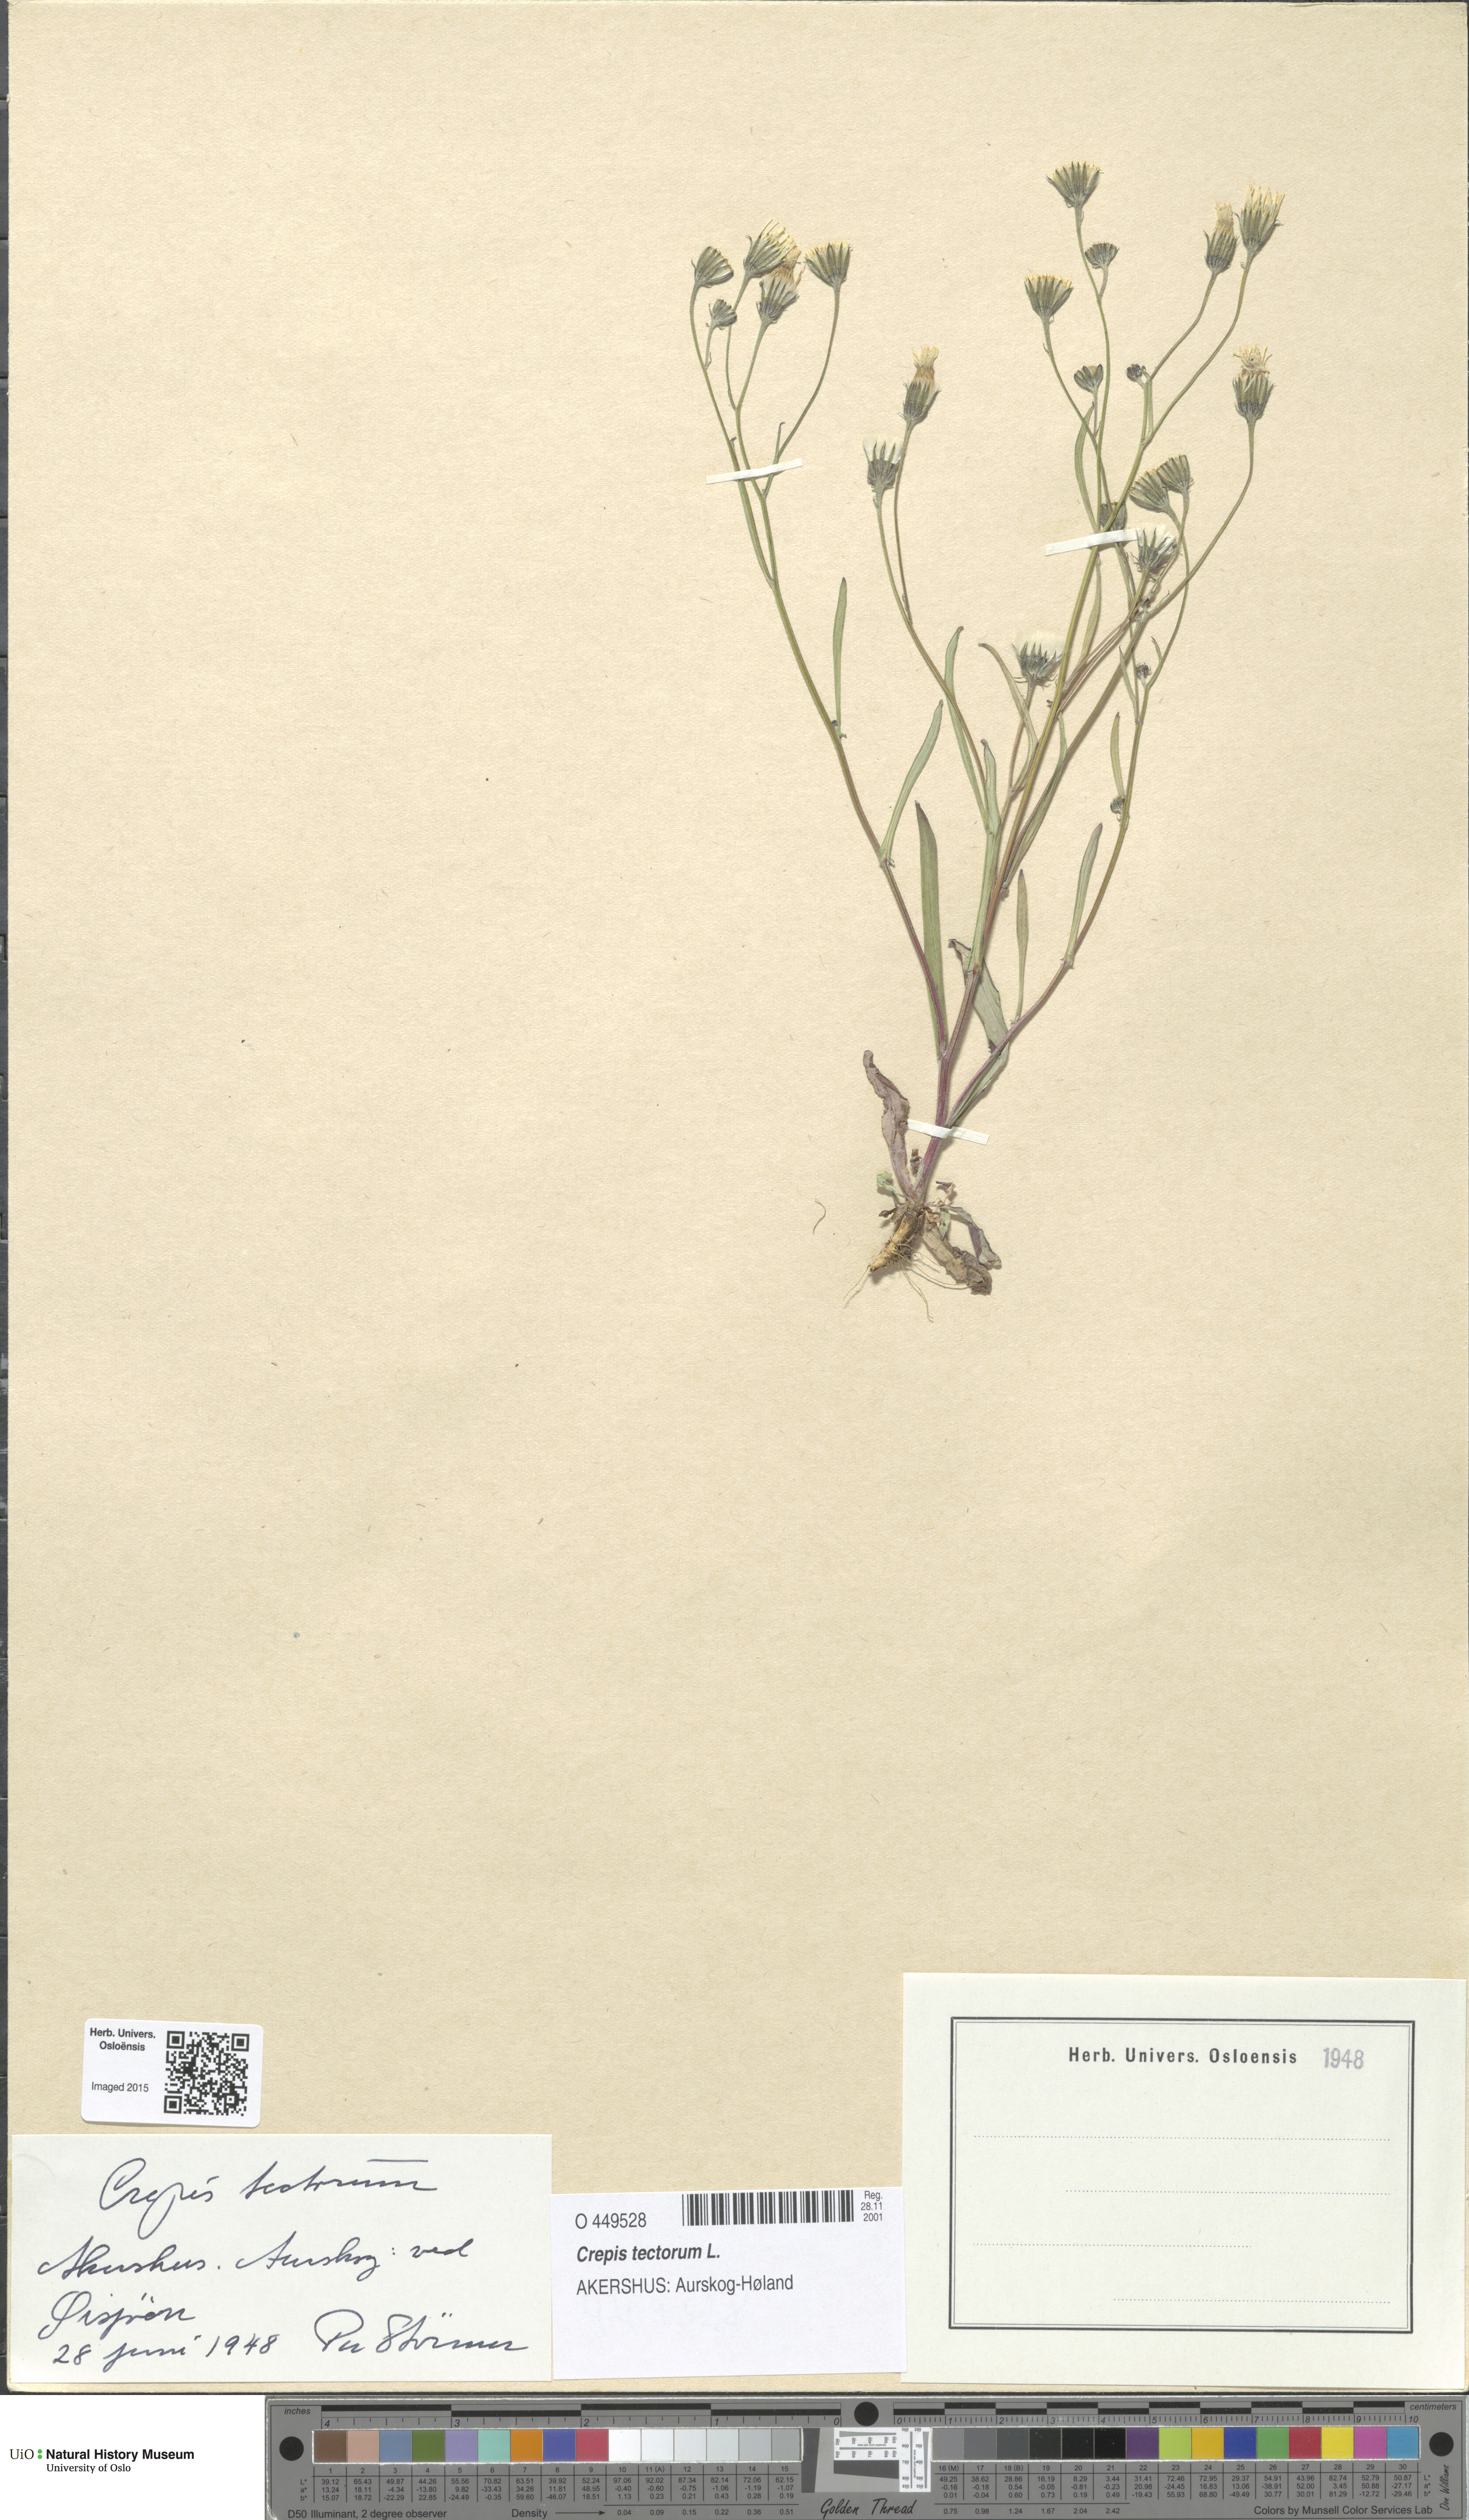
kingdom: Plantae
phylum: Tracheophyta
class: Magnoliopsida
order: Asterales
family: Asteraceae
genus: Crepis
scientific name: Crepis tectorum
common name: Narrow-leaved hawk's-beard
